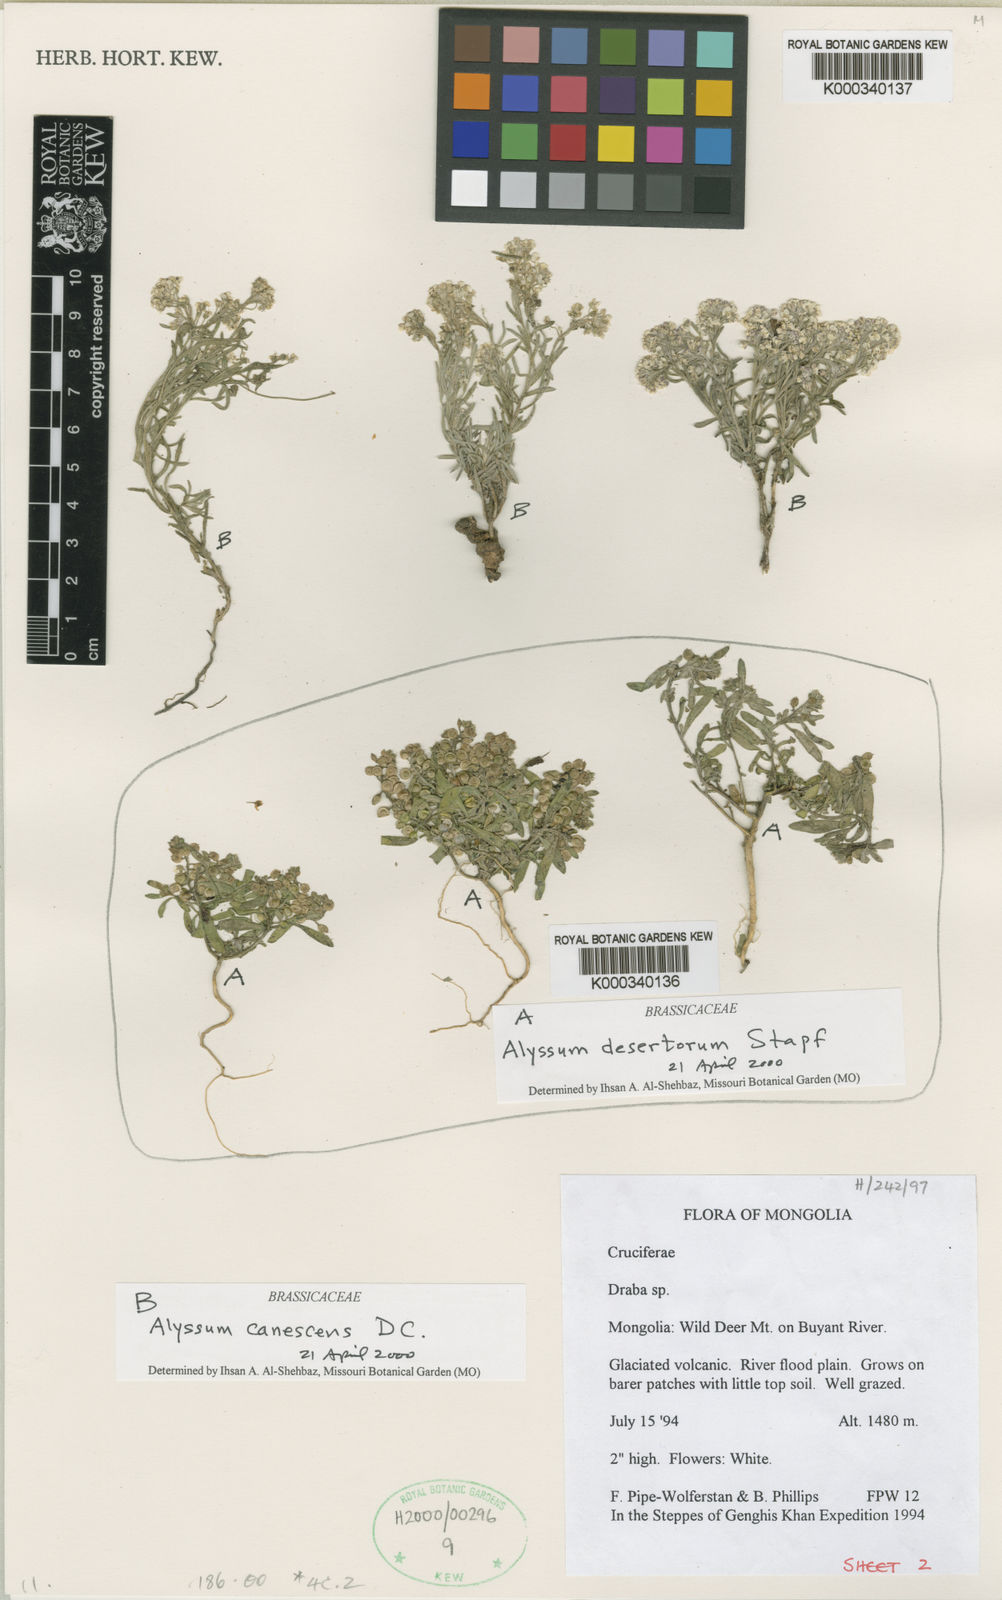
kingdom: Plantae
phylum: Tracheophyta
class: Magnoliopsida
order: Brassicales
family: Brassicaceae
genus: Alyssum
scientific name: Alyssum turkestanicum
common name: Desert alyssum
